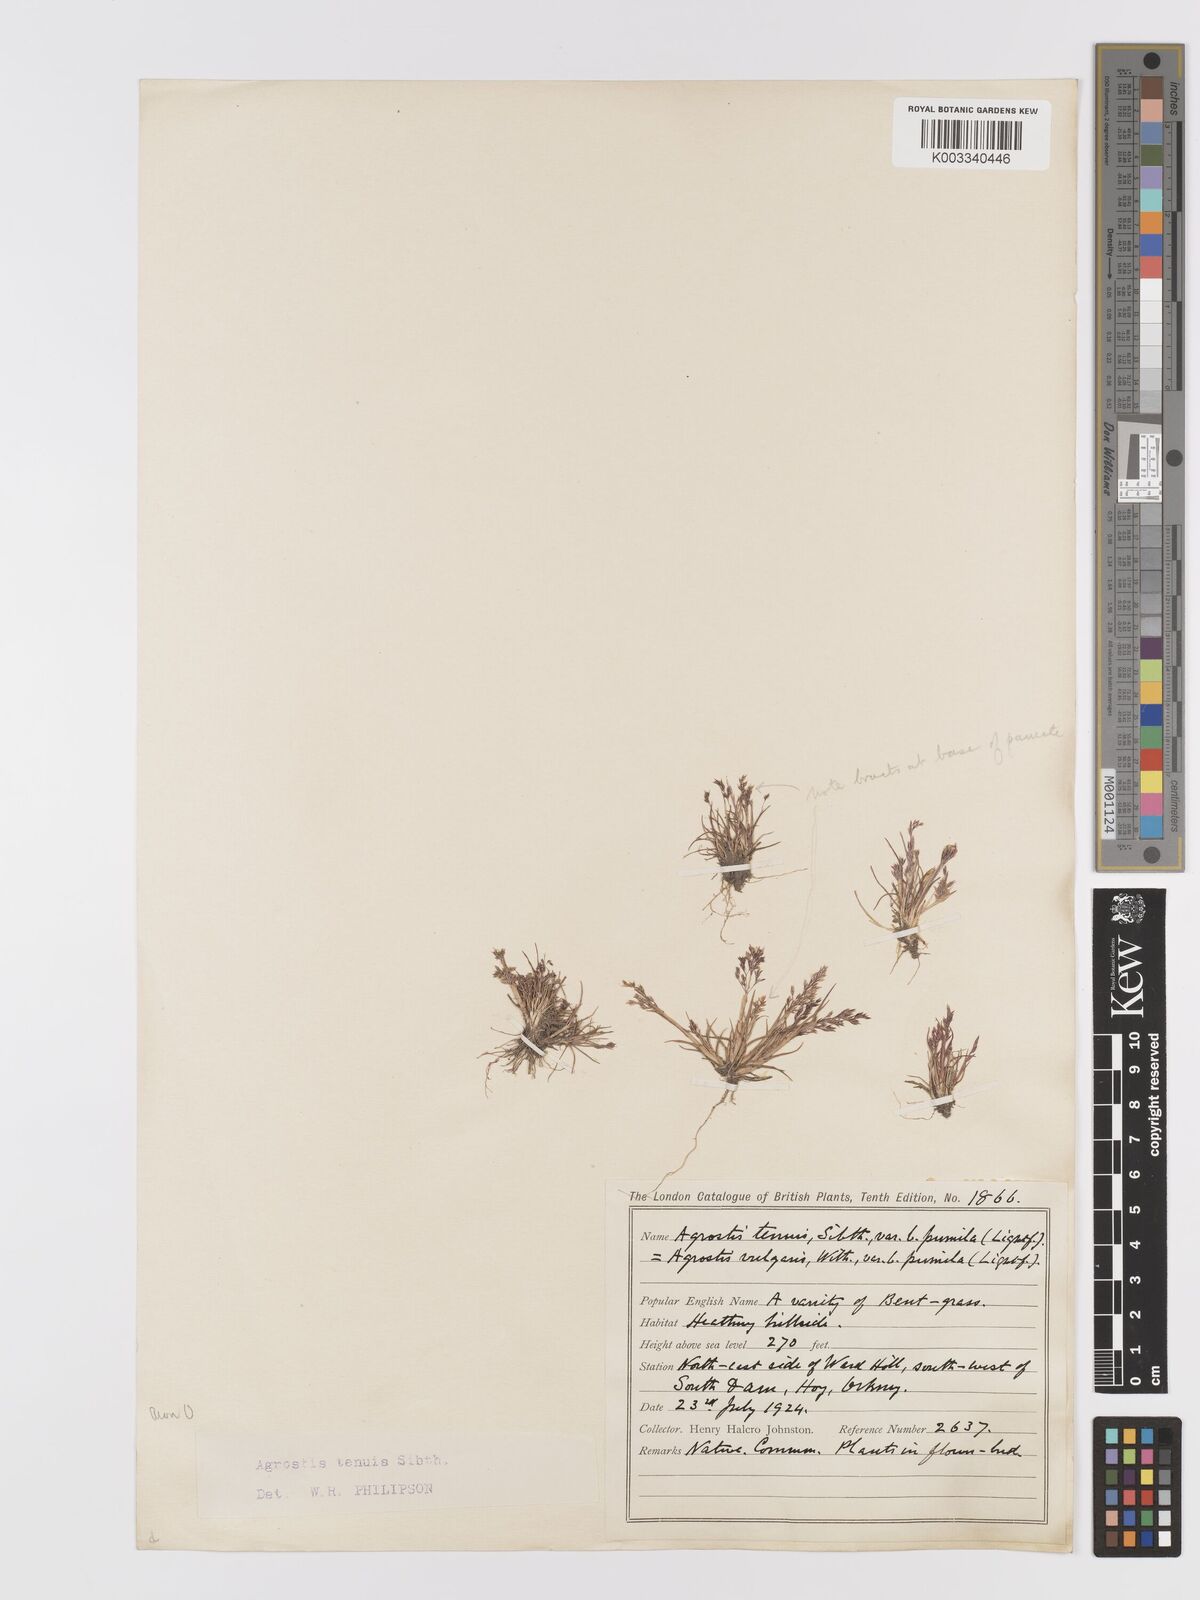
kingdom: Plantae
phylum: Tracheophyta
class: Liliopsida
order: Poales
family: Poaceae
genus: Agrostis
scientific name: Agrostis capillaris
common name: Colonial bentgrass
